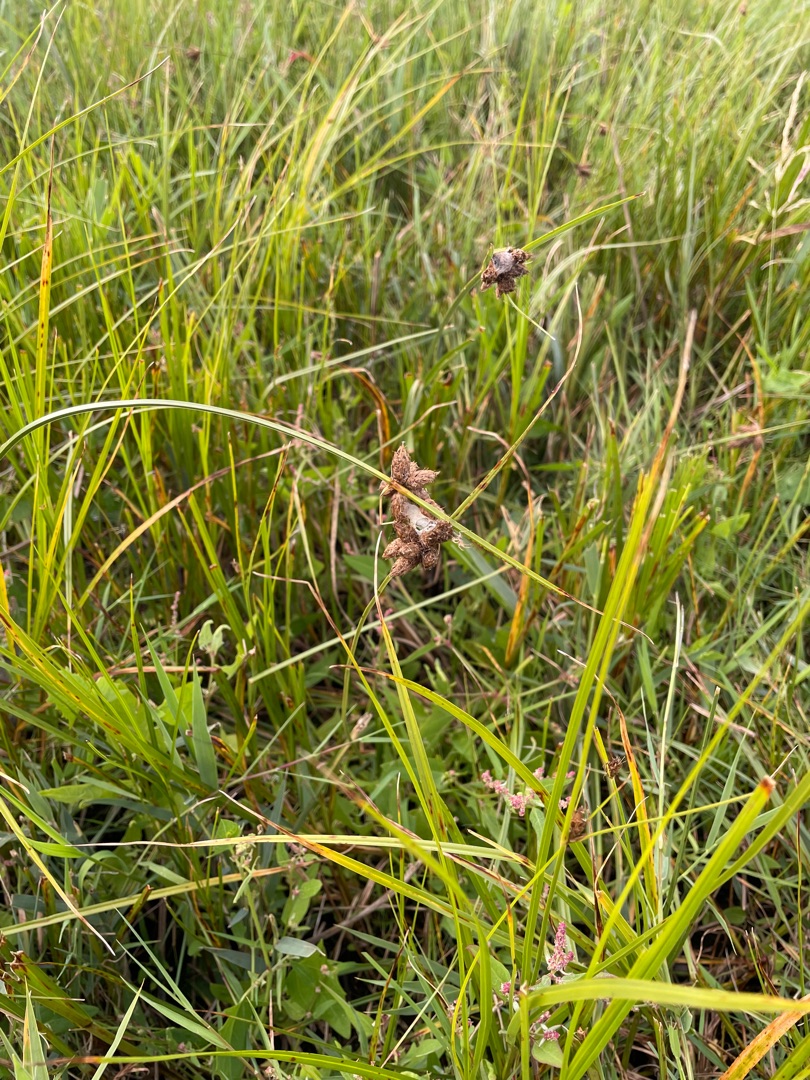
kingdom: Plantae
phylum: Tracheophyta
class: Liliopsida
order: Poales
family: Cyperaceae
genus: Bolboschoenus
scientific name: Bolboschoenus maritimus
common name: Strand-kogleaks
